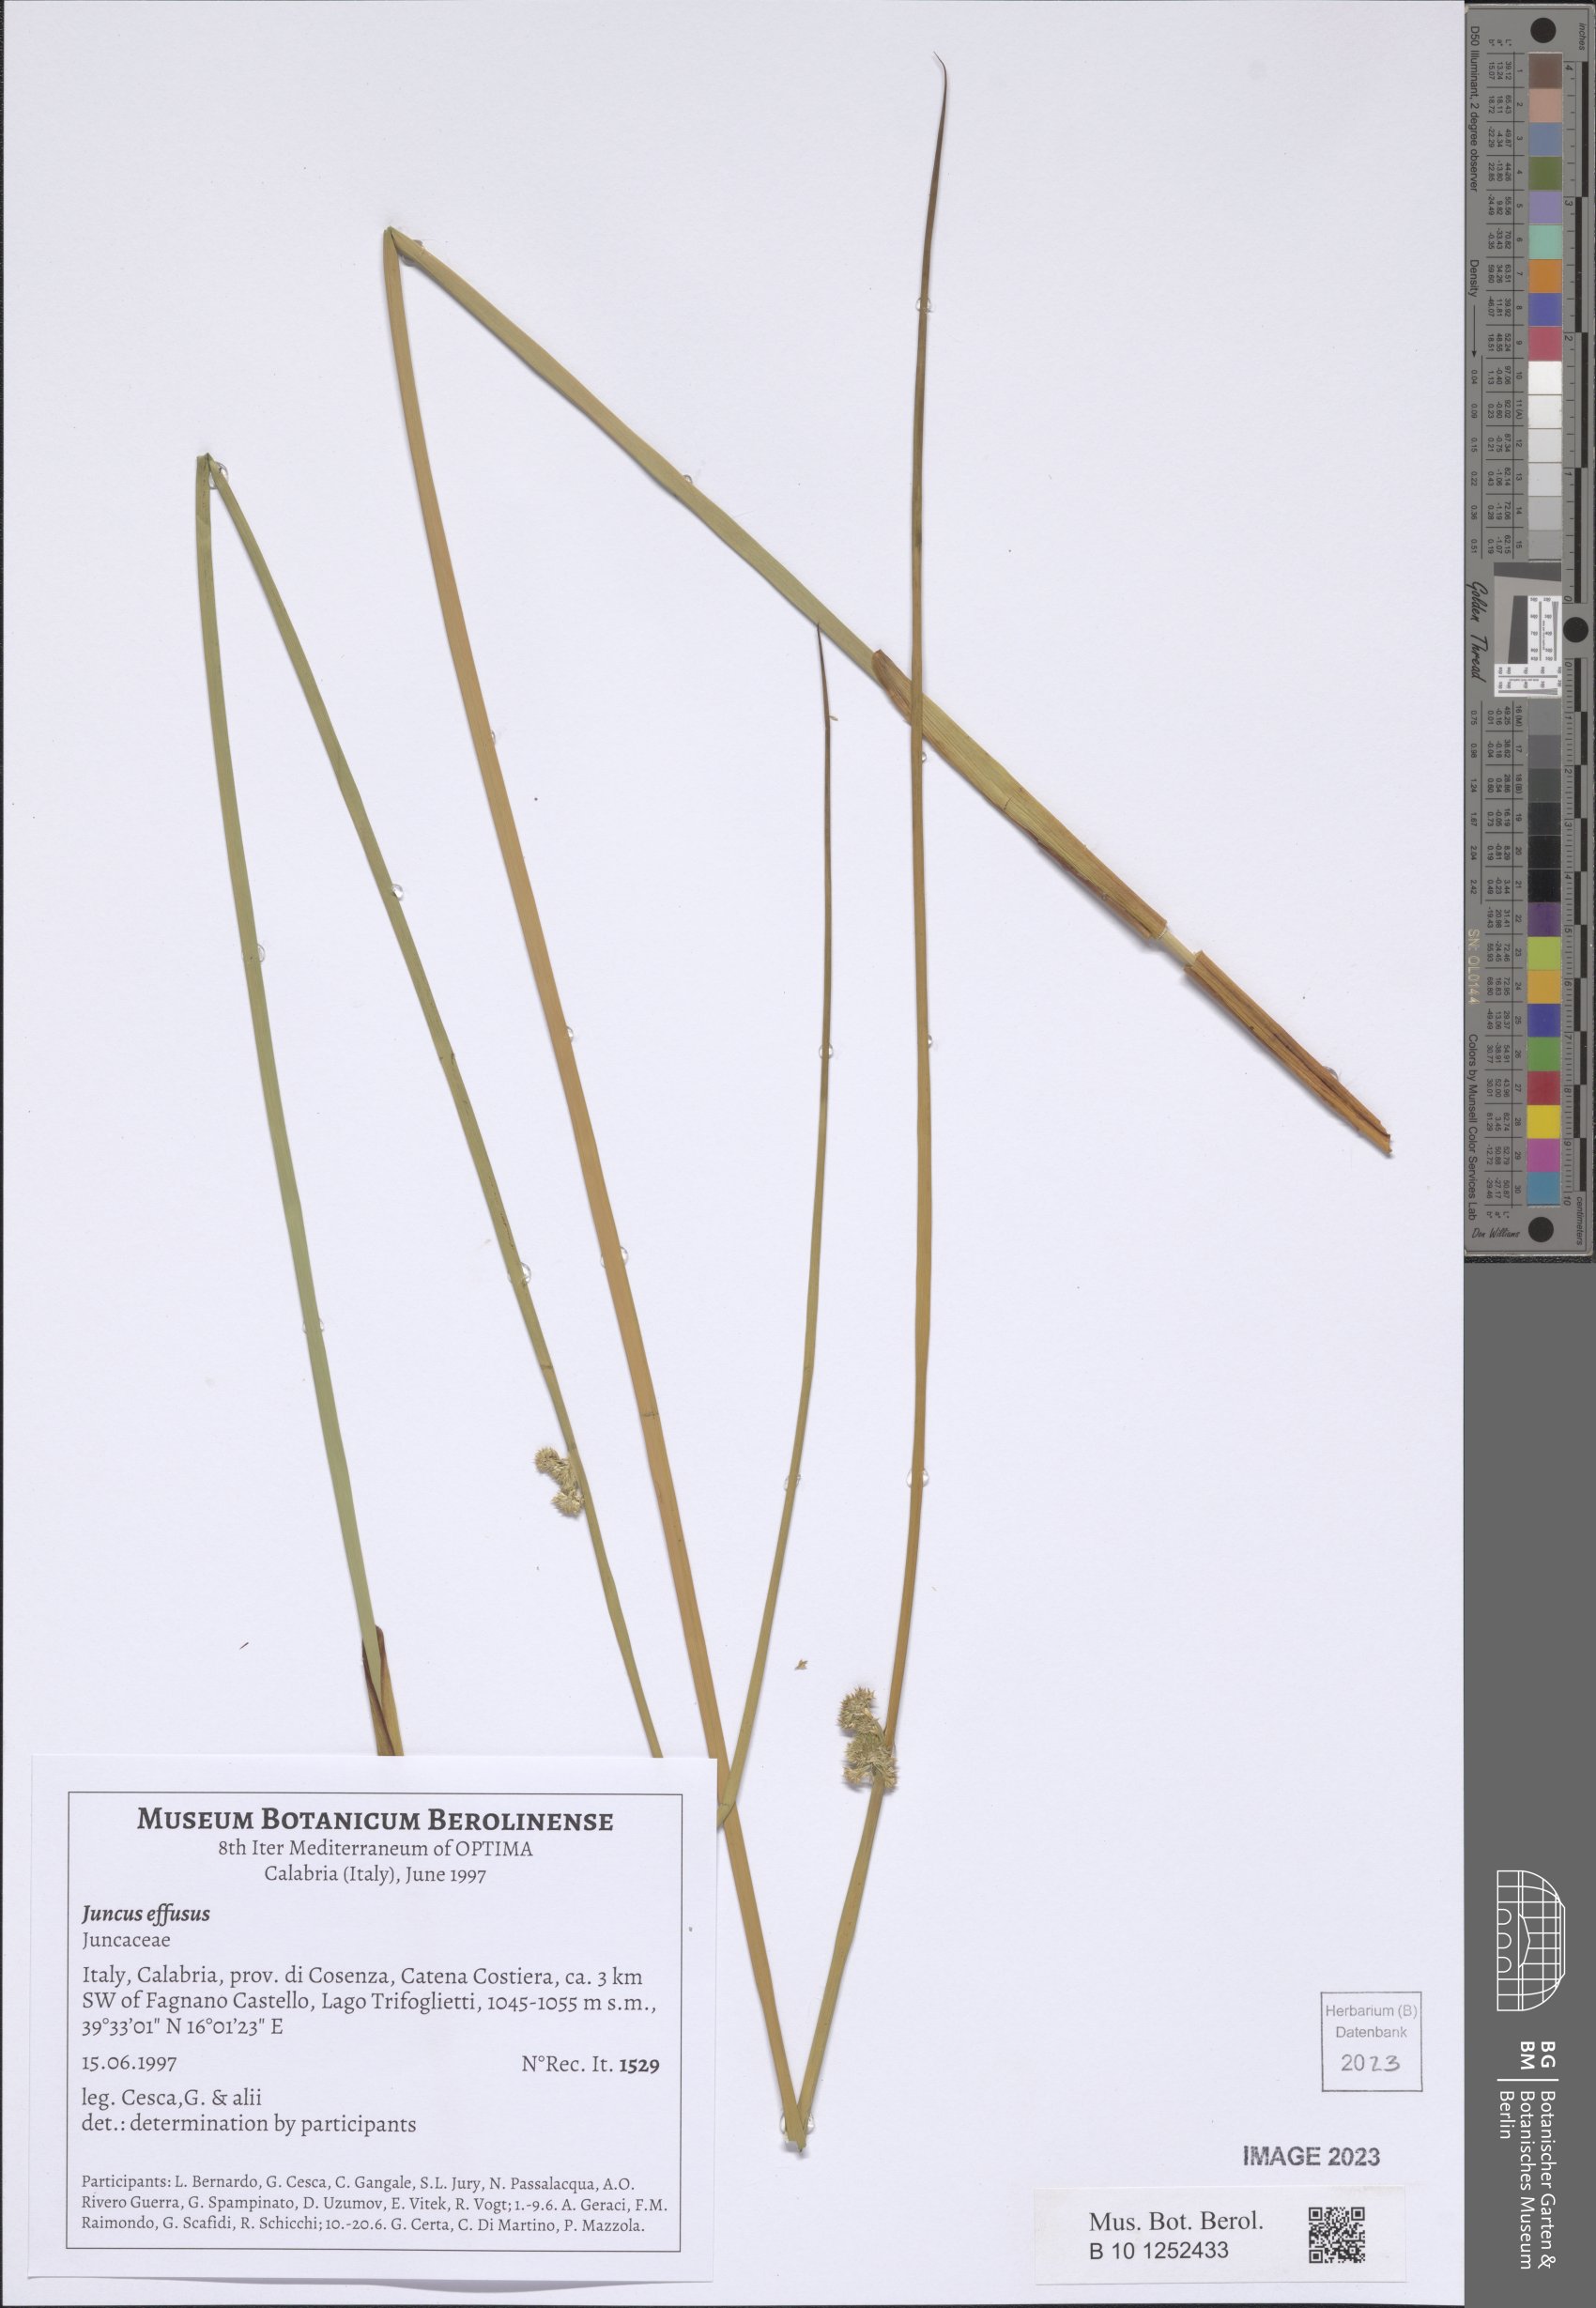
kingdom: Plantae
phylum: Tracheophyta
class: Liliopsida
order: Poales
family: Juncaceae
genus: Juncus
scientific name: Juncus effusus
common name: Soft rush
